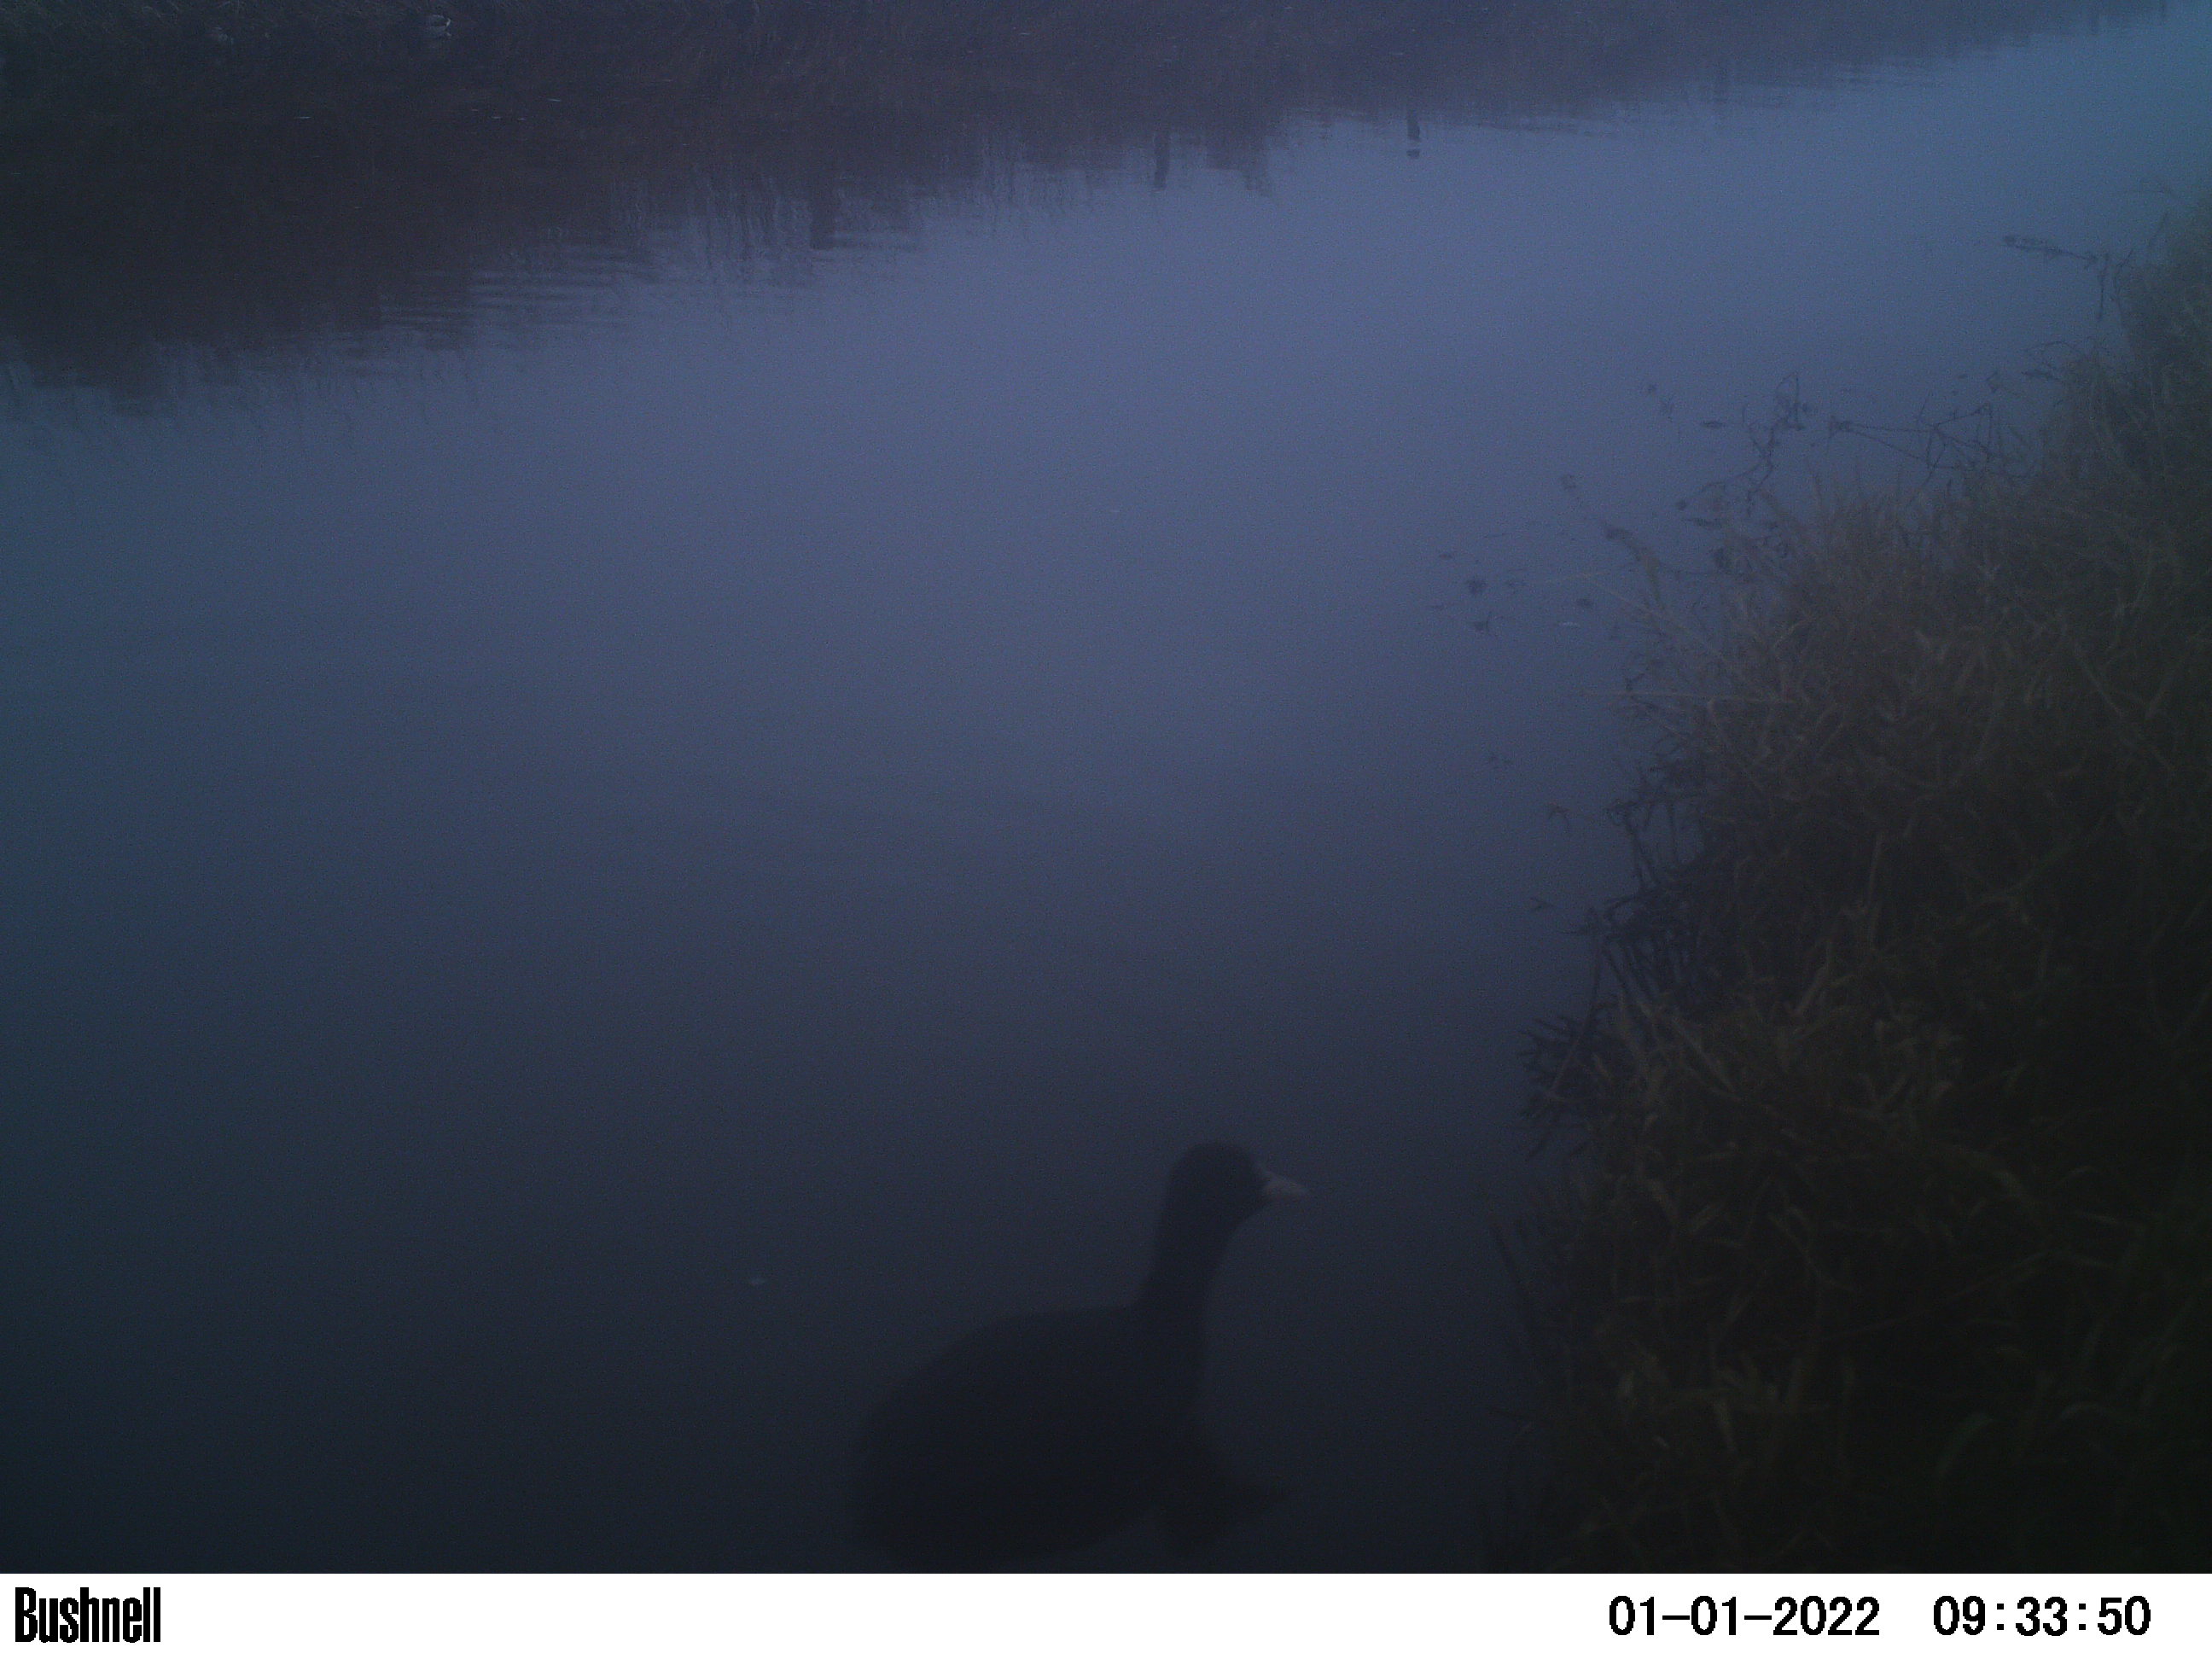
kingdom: Animalia
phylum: Chordata
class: Aves
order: Gruiformes
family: Rallidae
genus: Fulica
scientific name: Fulica atra
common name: Eurasian coot
